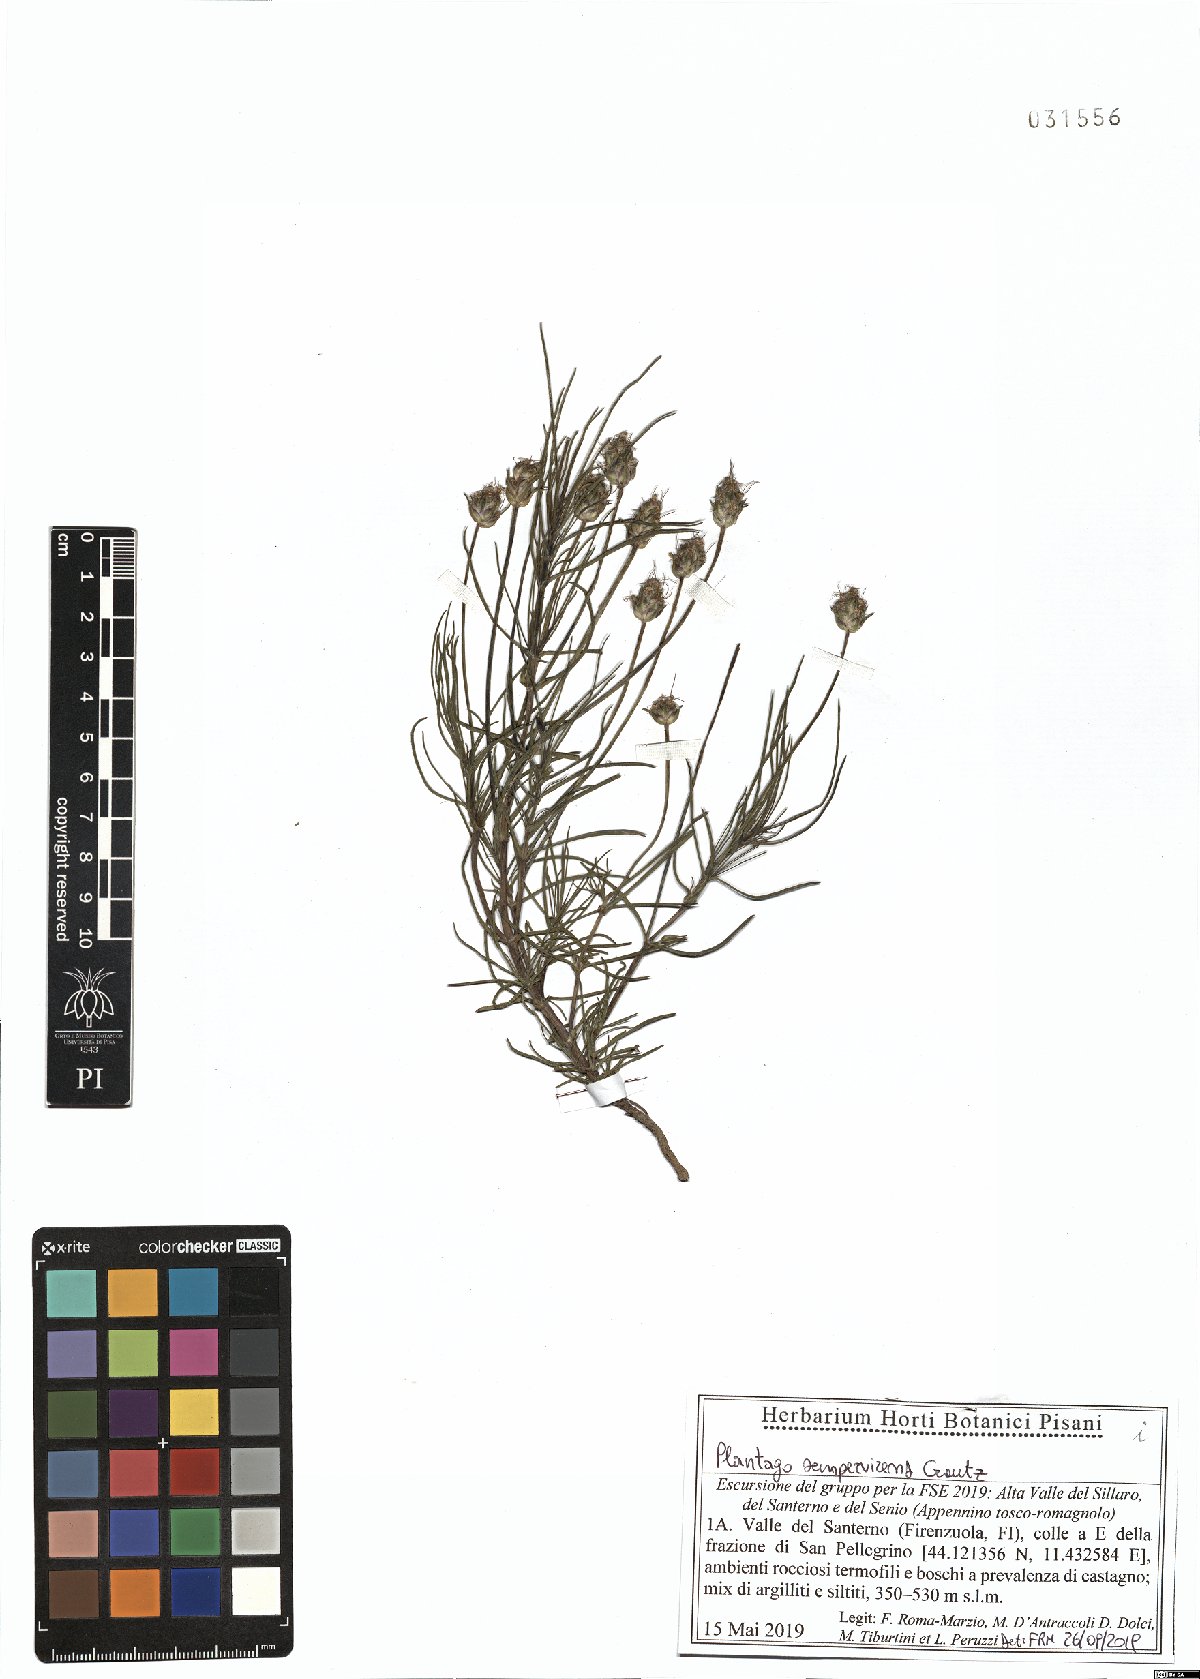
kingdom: Plantae
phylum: Tracheophyta
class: Magnoliopsida
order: Lamiales
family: Plantaginaceae
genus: Plantago
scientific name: Plantago sempervirens
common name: Shrubby plantain
